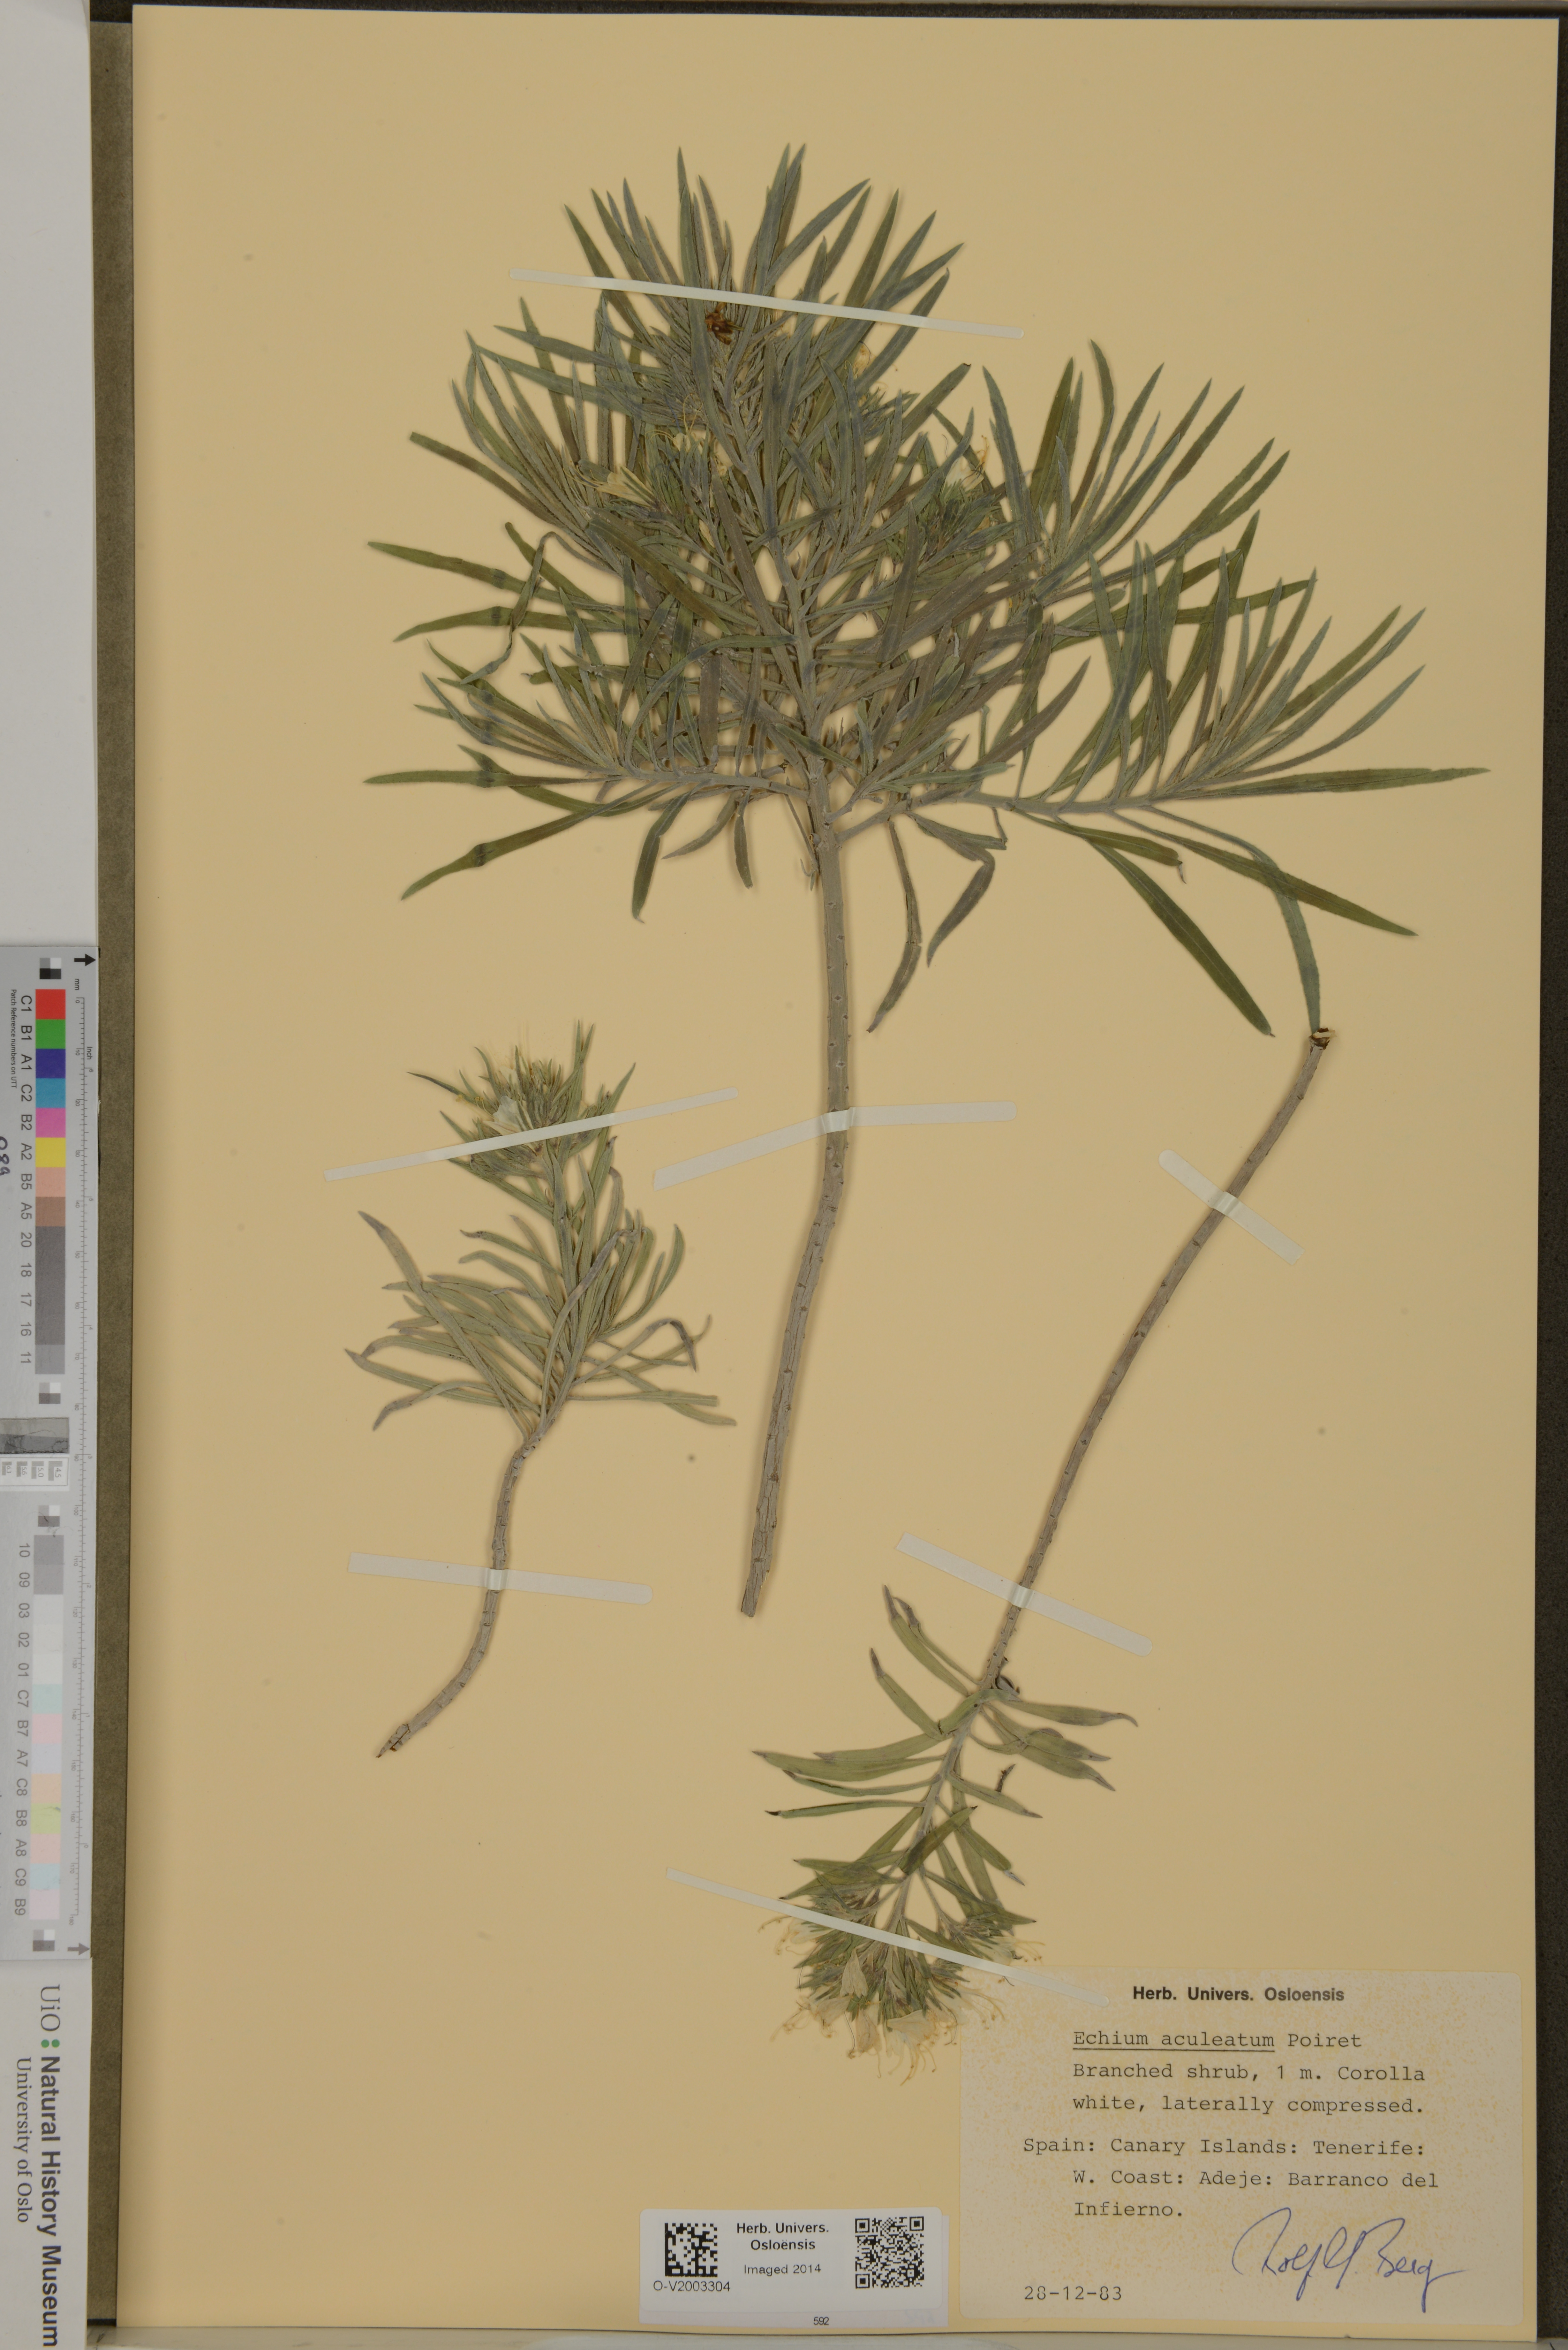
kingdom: Plantae
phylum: Tracheophyta
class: Magnoliopsida
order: Boraginales
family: Boraginaceae
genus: Echium
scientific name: Echium aculeatum
